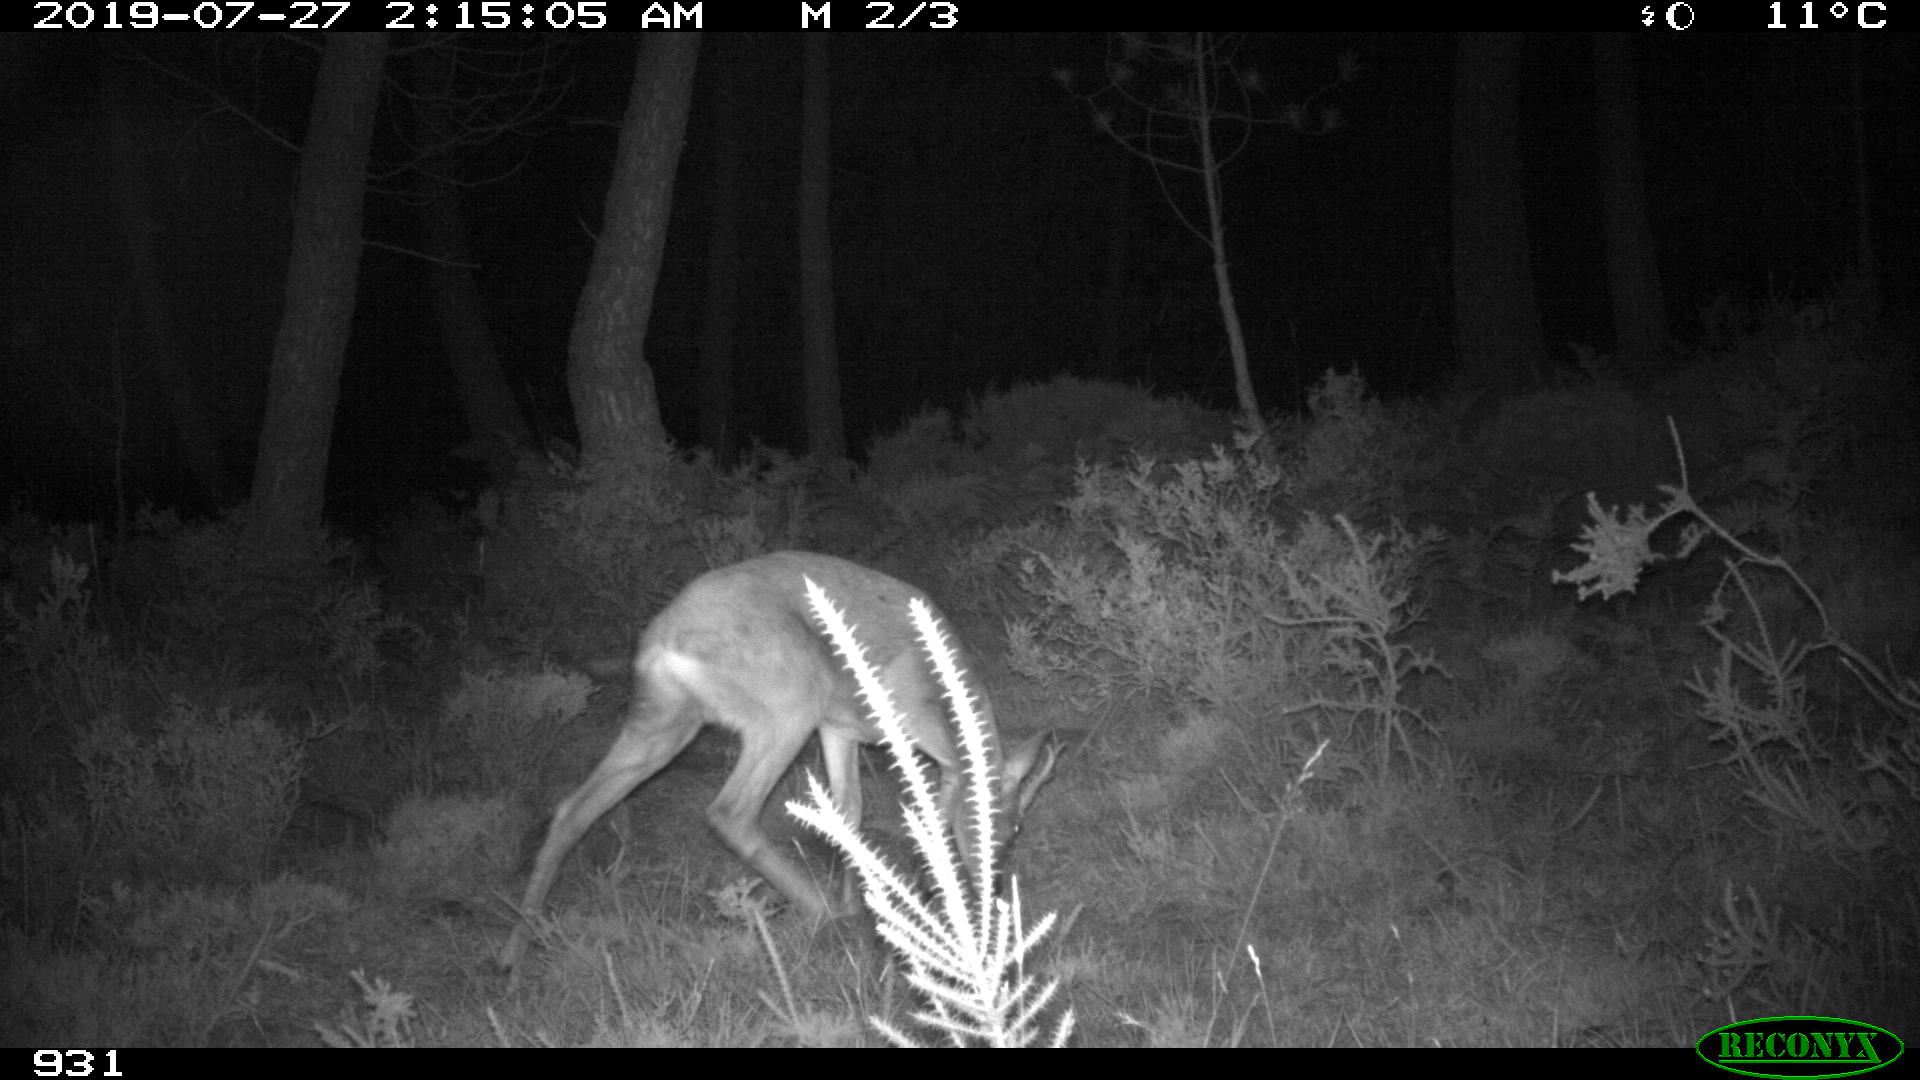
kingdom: Animalia
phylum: Chordata
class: Mammalia
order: Artiodactyla
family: Cervidae
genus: Capreolus
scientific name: Capreolus capreolus
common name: Western roe deer
